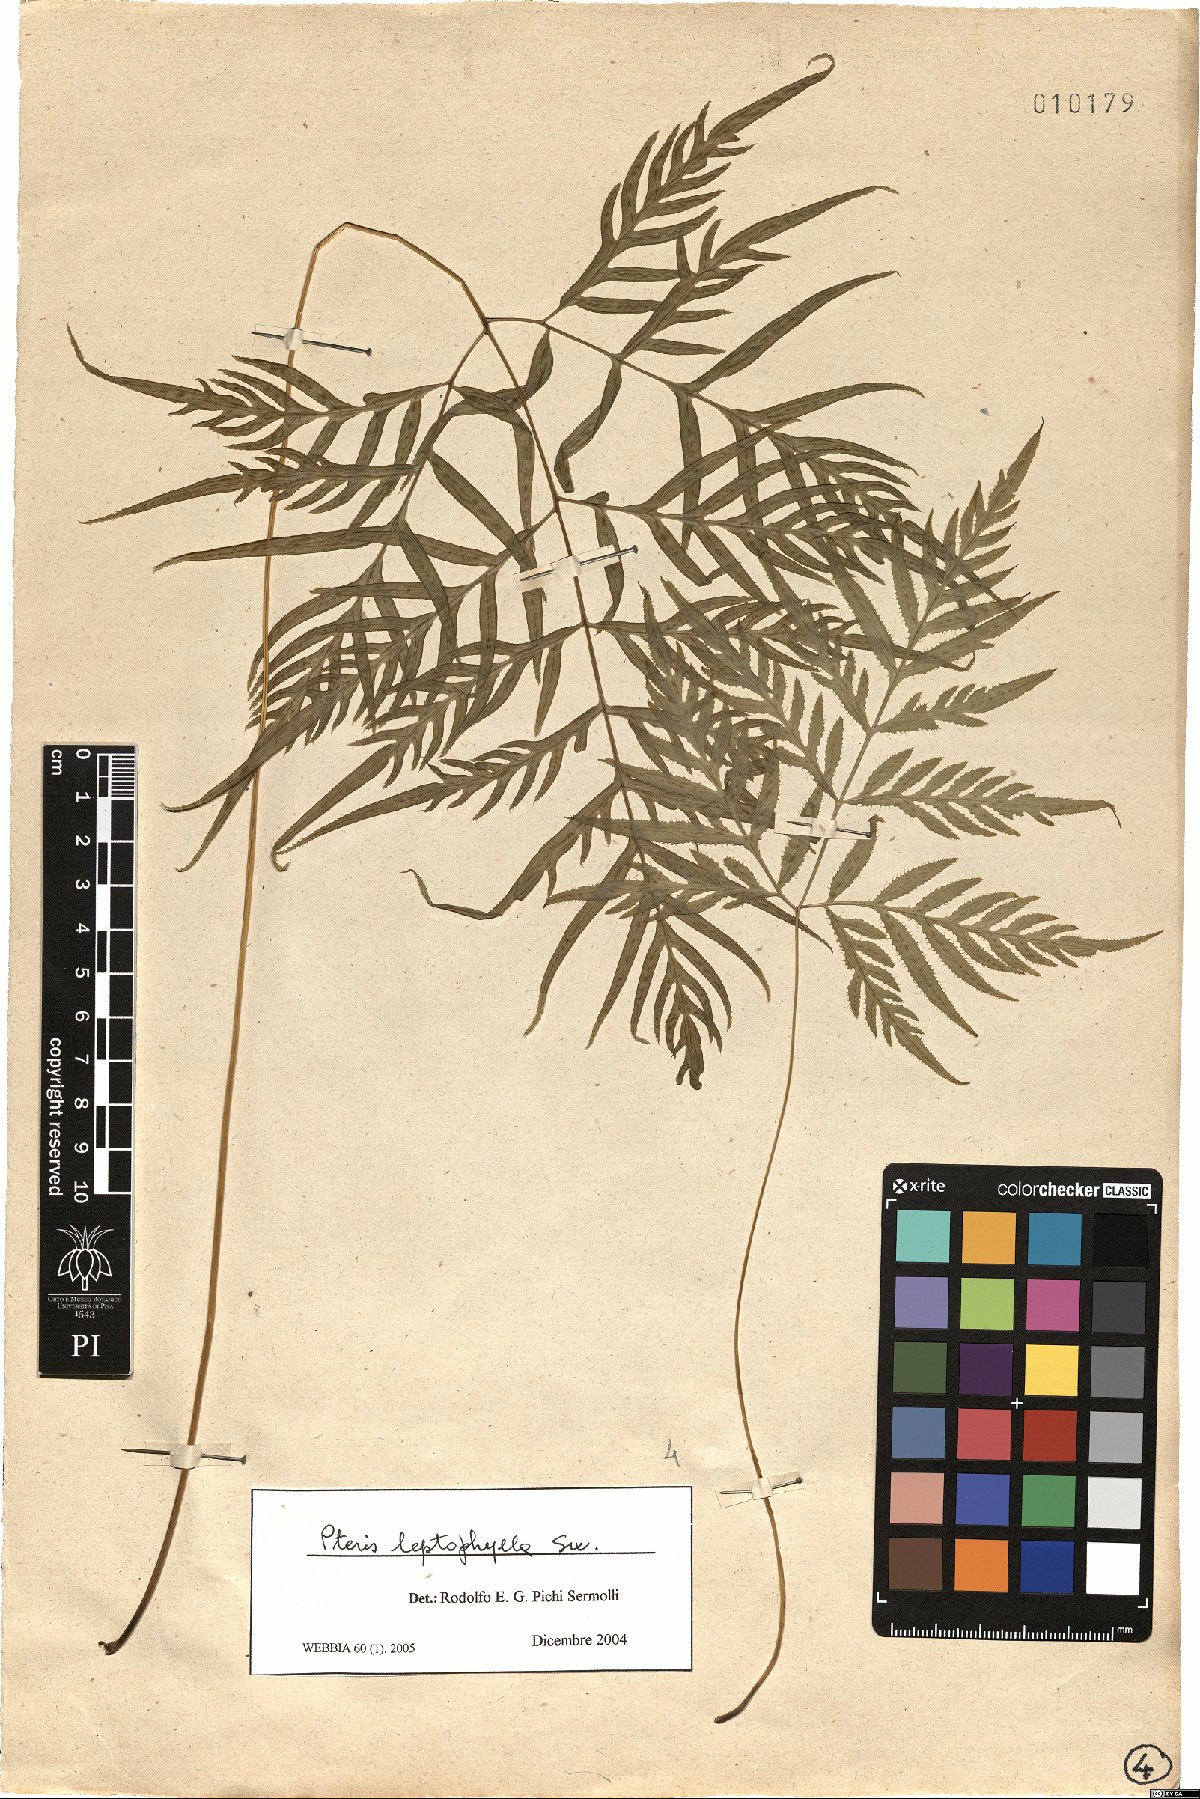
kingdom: Plantae
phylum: Tracheophyta
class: Polypodiopsida
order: Polypodiales
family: Pteridaceae
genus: Pteris
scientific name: Pteris leptophylla
